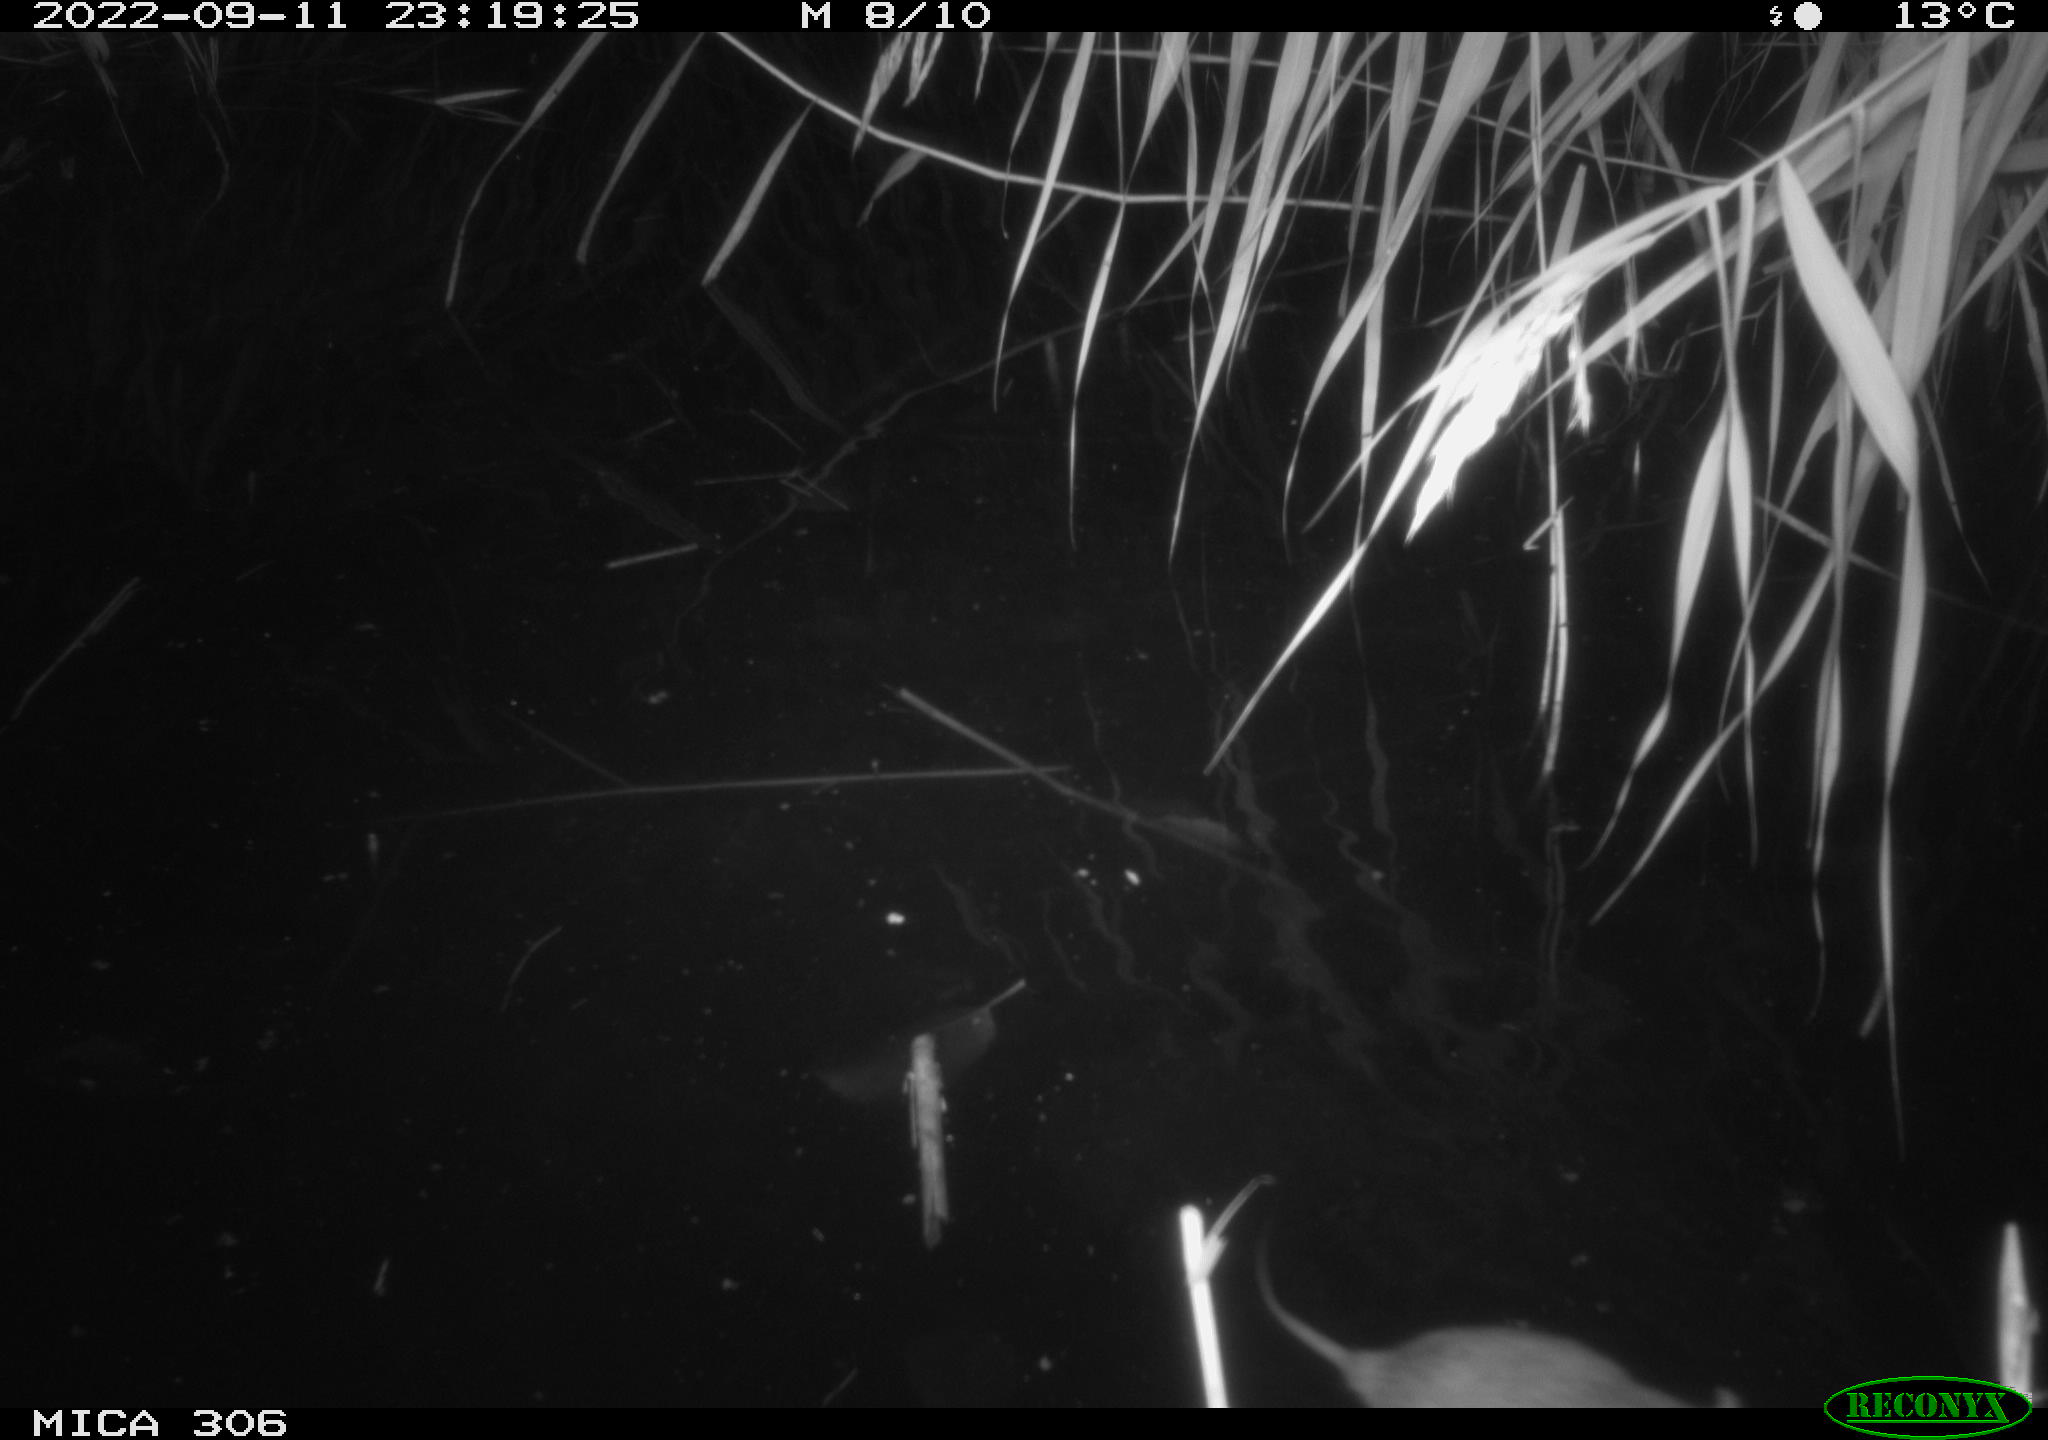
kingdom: Animalia
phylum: Chordata
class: Mammalia
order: Rodentia
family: Muridae
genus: Rattus
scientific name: Rattus norvegicus
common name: Brown rat
